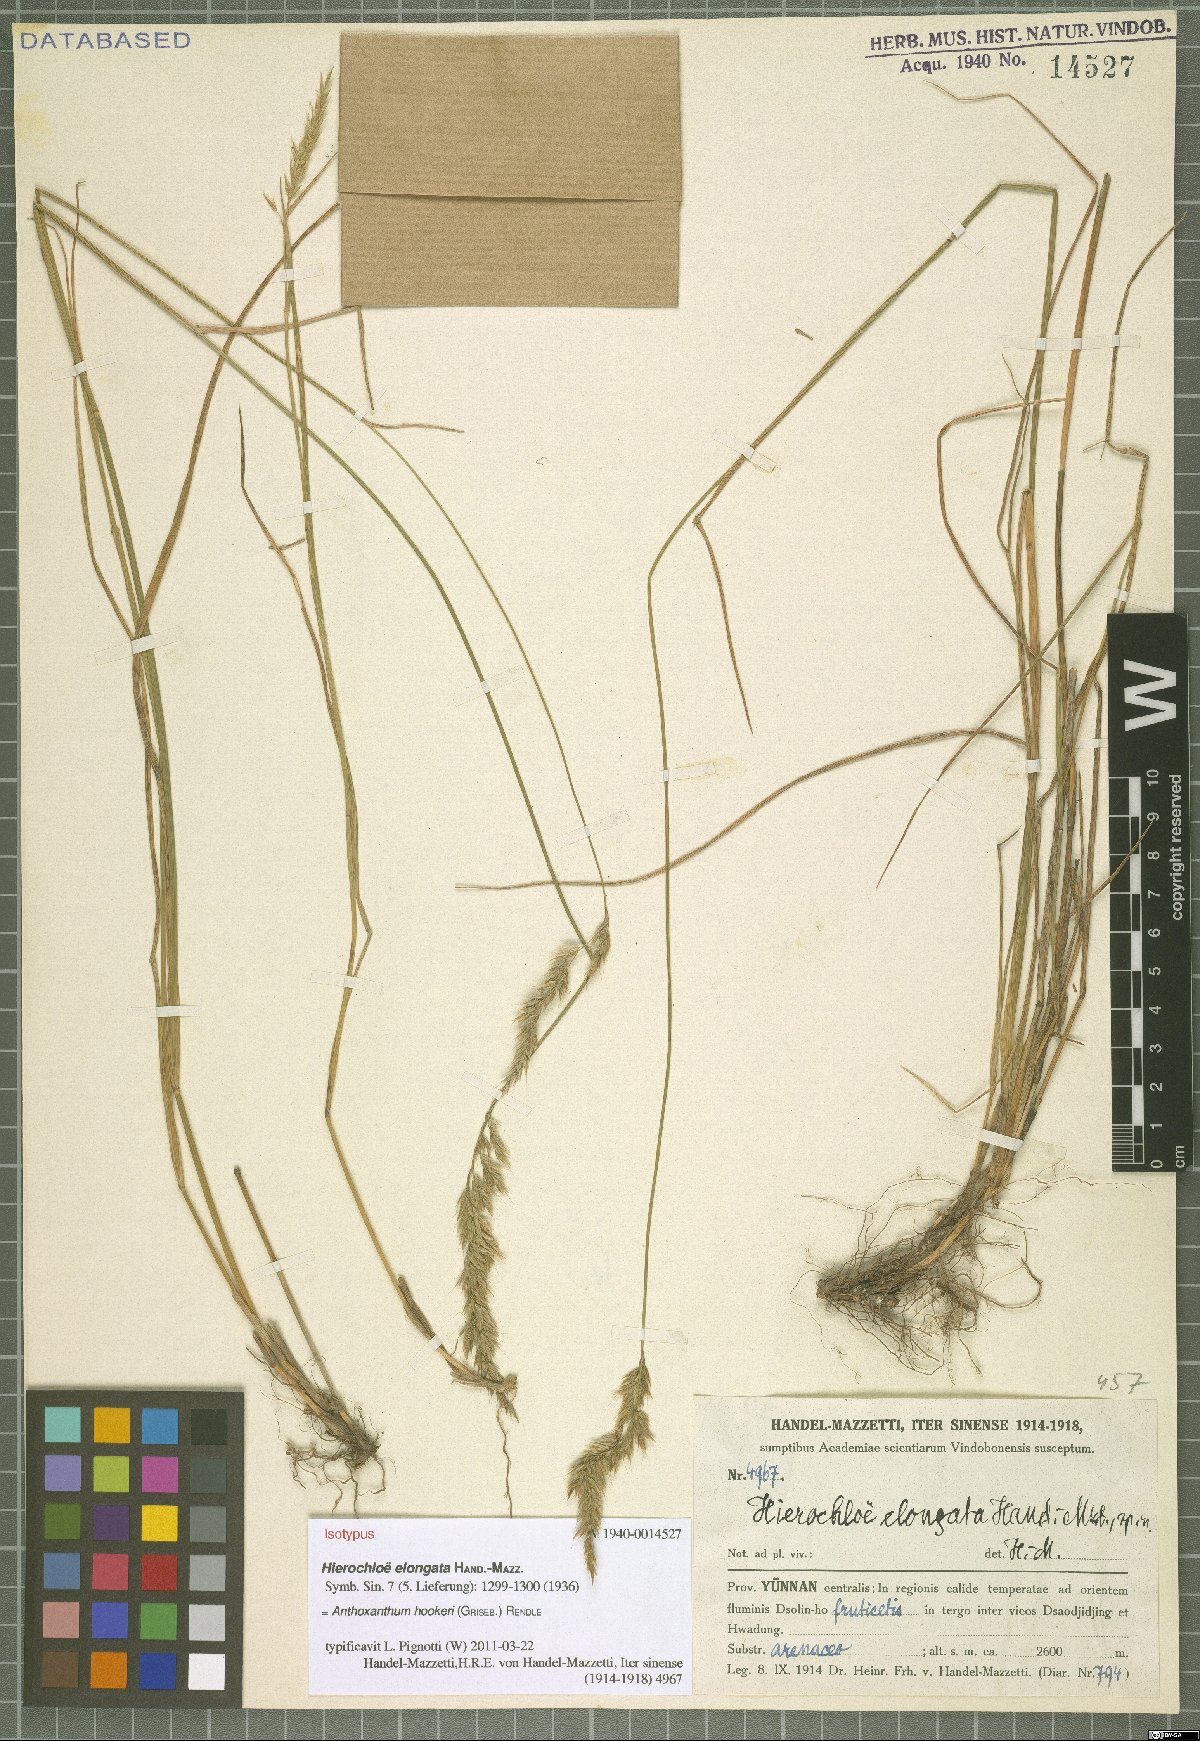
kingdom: Plantae
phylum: Tracheophyta
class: Liliopsida
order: Poales
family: Poaceae
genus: Anthoxanthum
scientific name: Anthoxanthum hookeri
